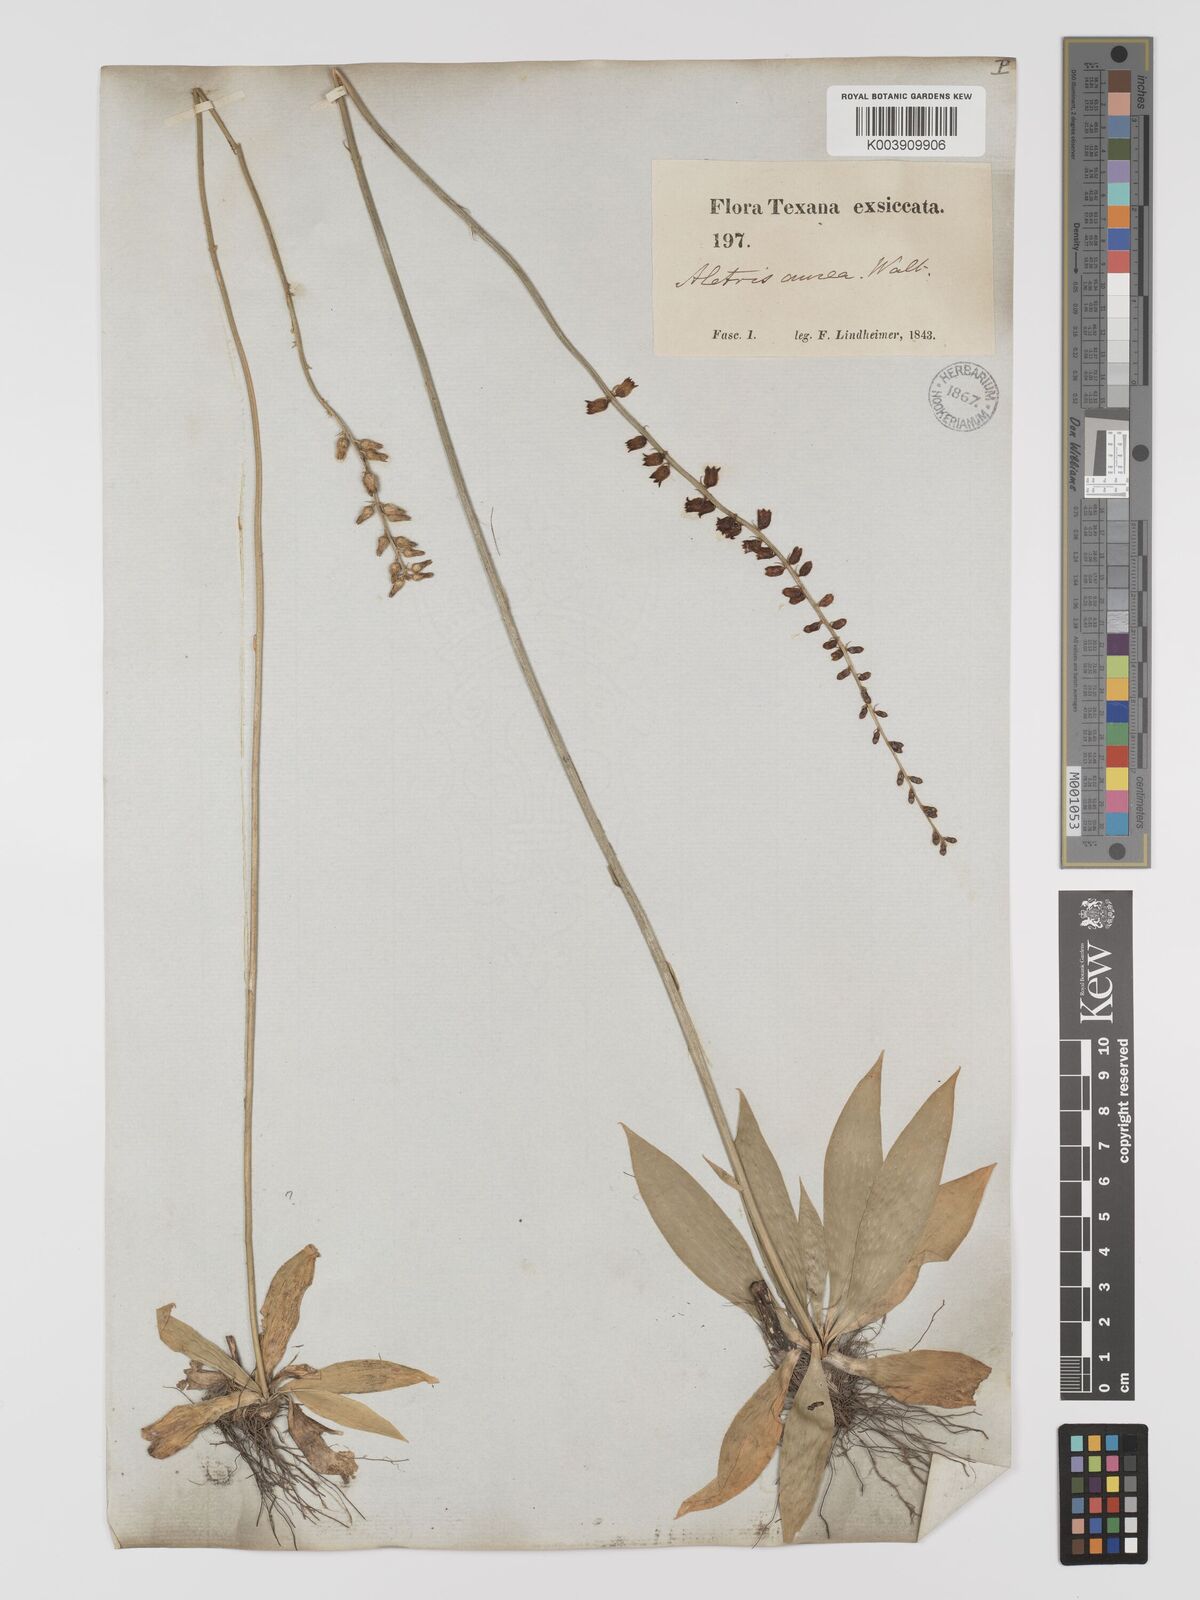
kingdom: Plantae
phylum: Tracheophyta
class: Liliopsida
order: Dioscoreales
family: Nartheciaceae
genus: Aletris
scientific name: Aletris aurea
